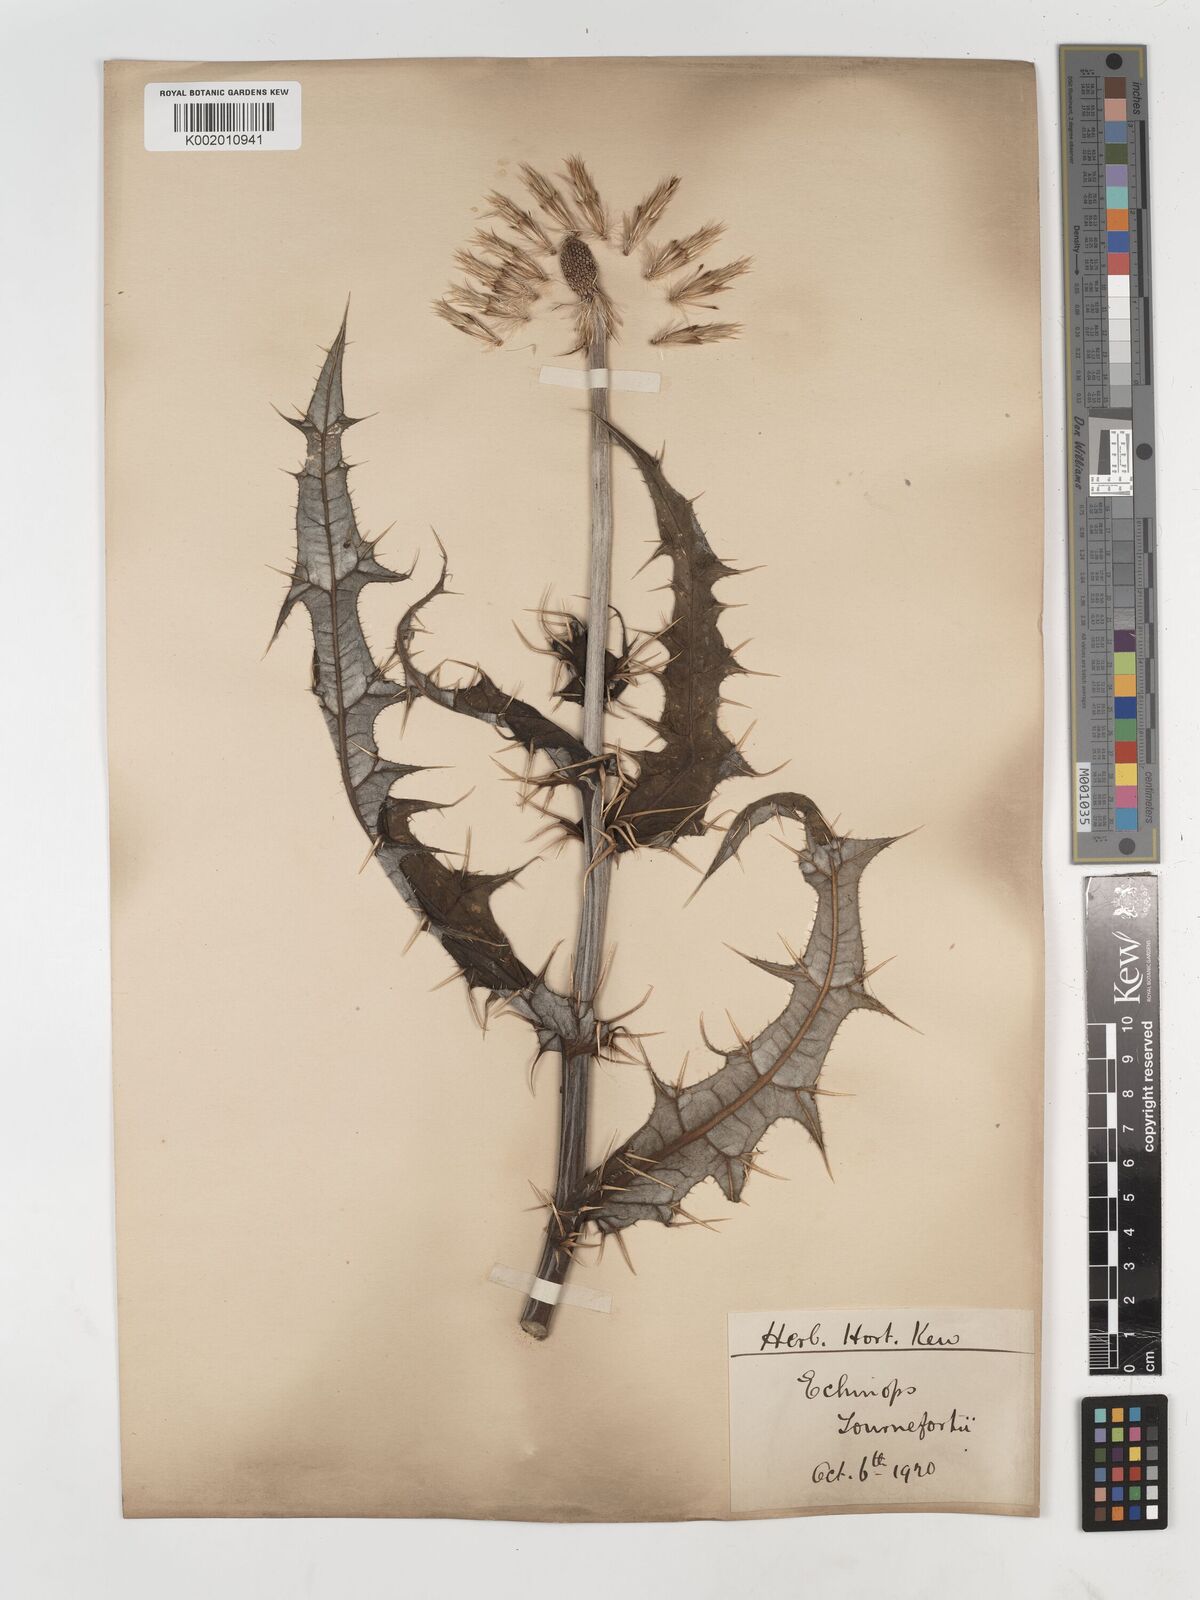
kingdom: Plantae
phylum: Tracheophyta
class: Magnoliopsida
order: Asterales
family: Asteraceae
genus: Echinops
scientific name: Echinops tournefortii
